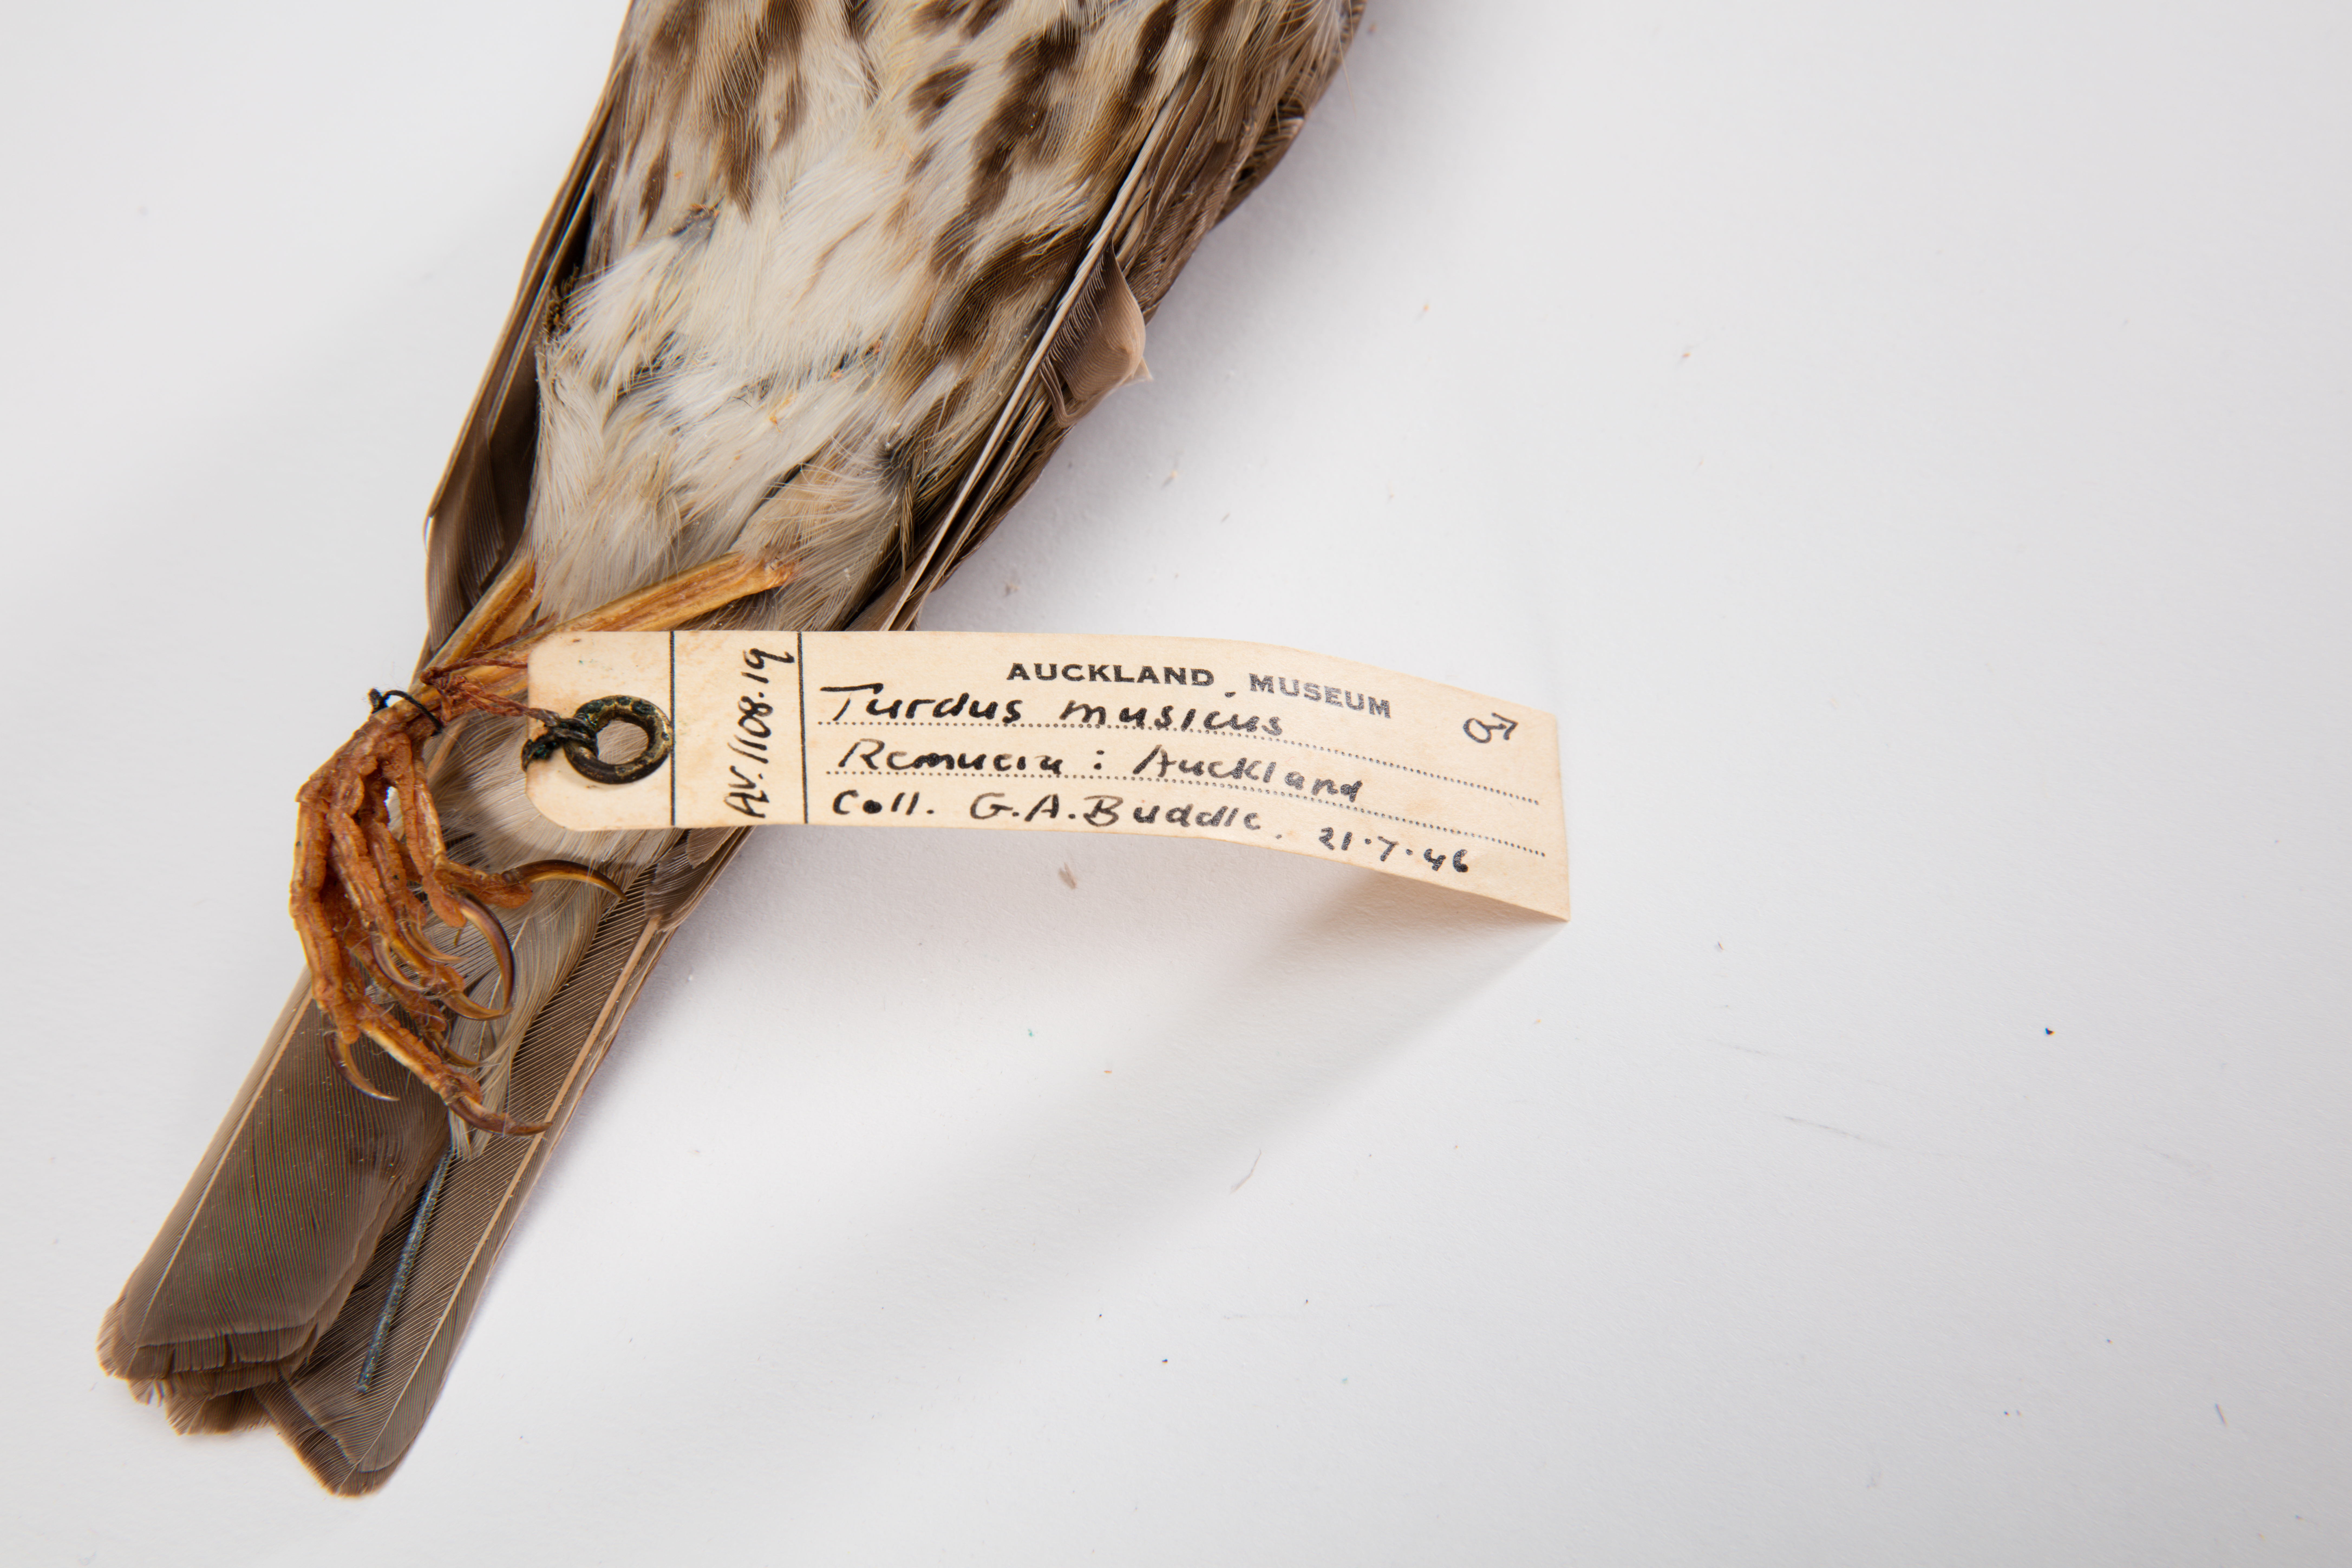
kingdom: Animalia
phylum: Chordata
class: Aves
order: Passeriformes
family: Turdidae
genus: Turdus
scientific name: Turdus philomelos
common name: Song thrush
